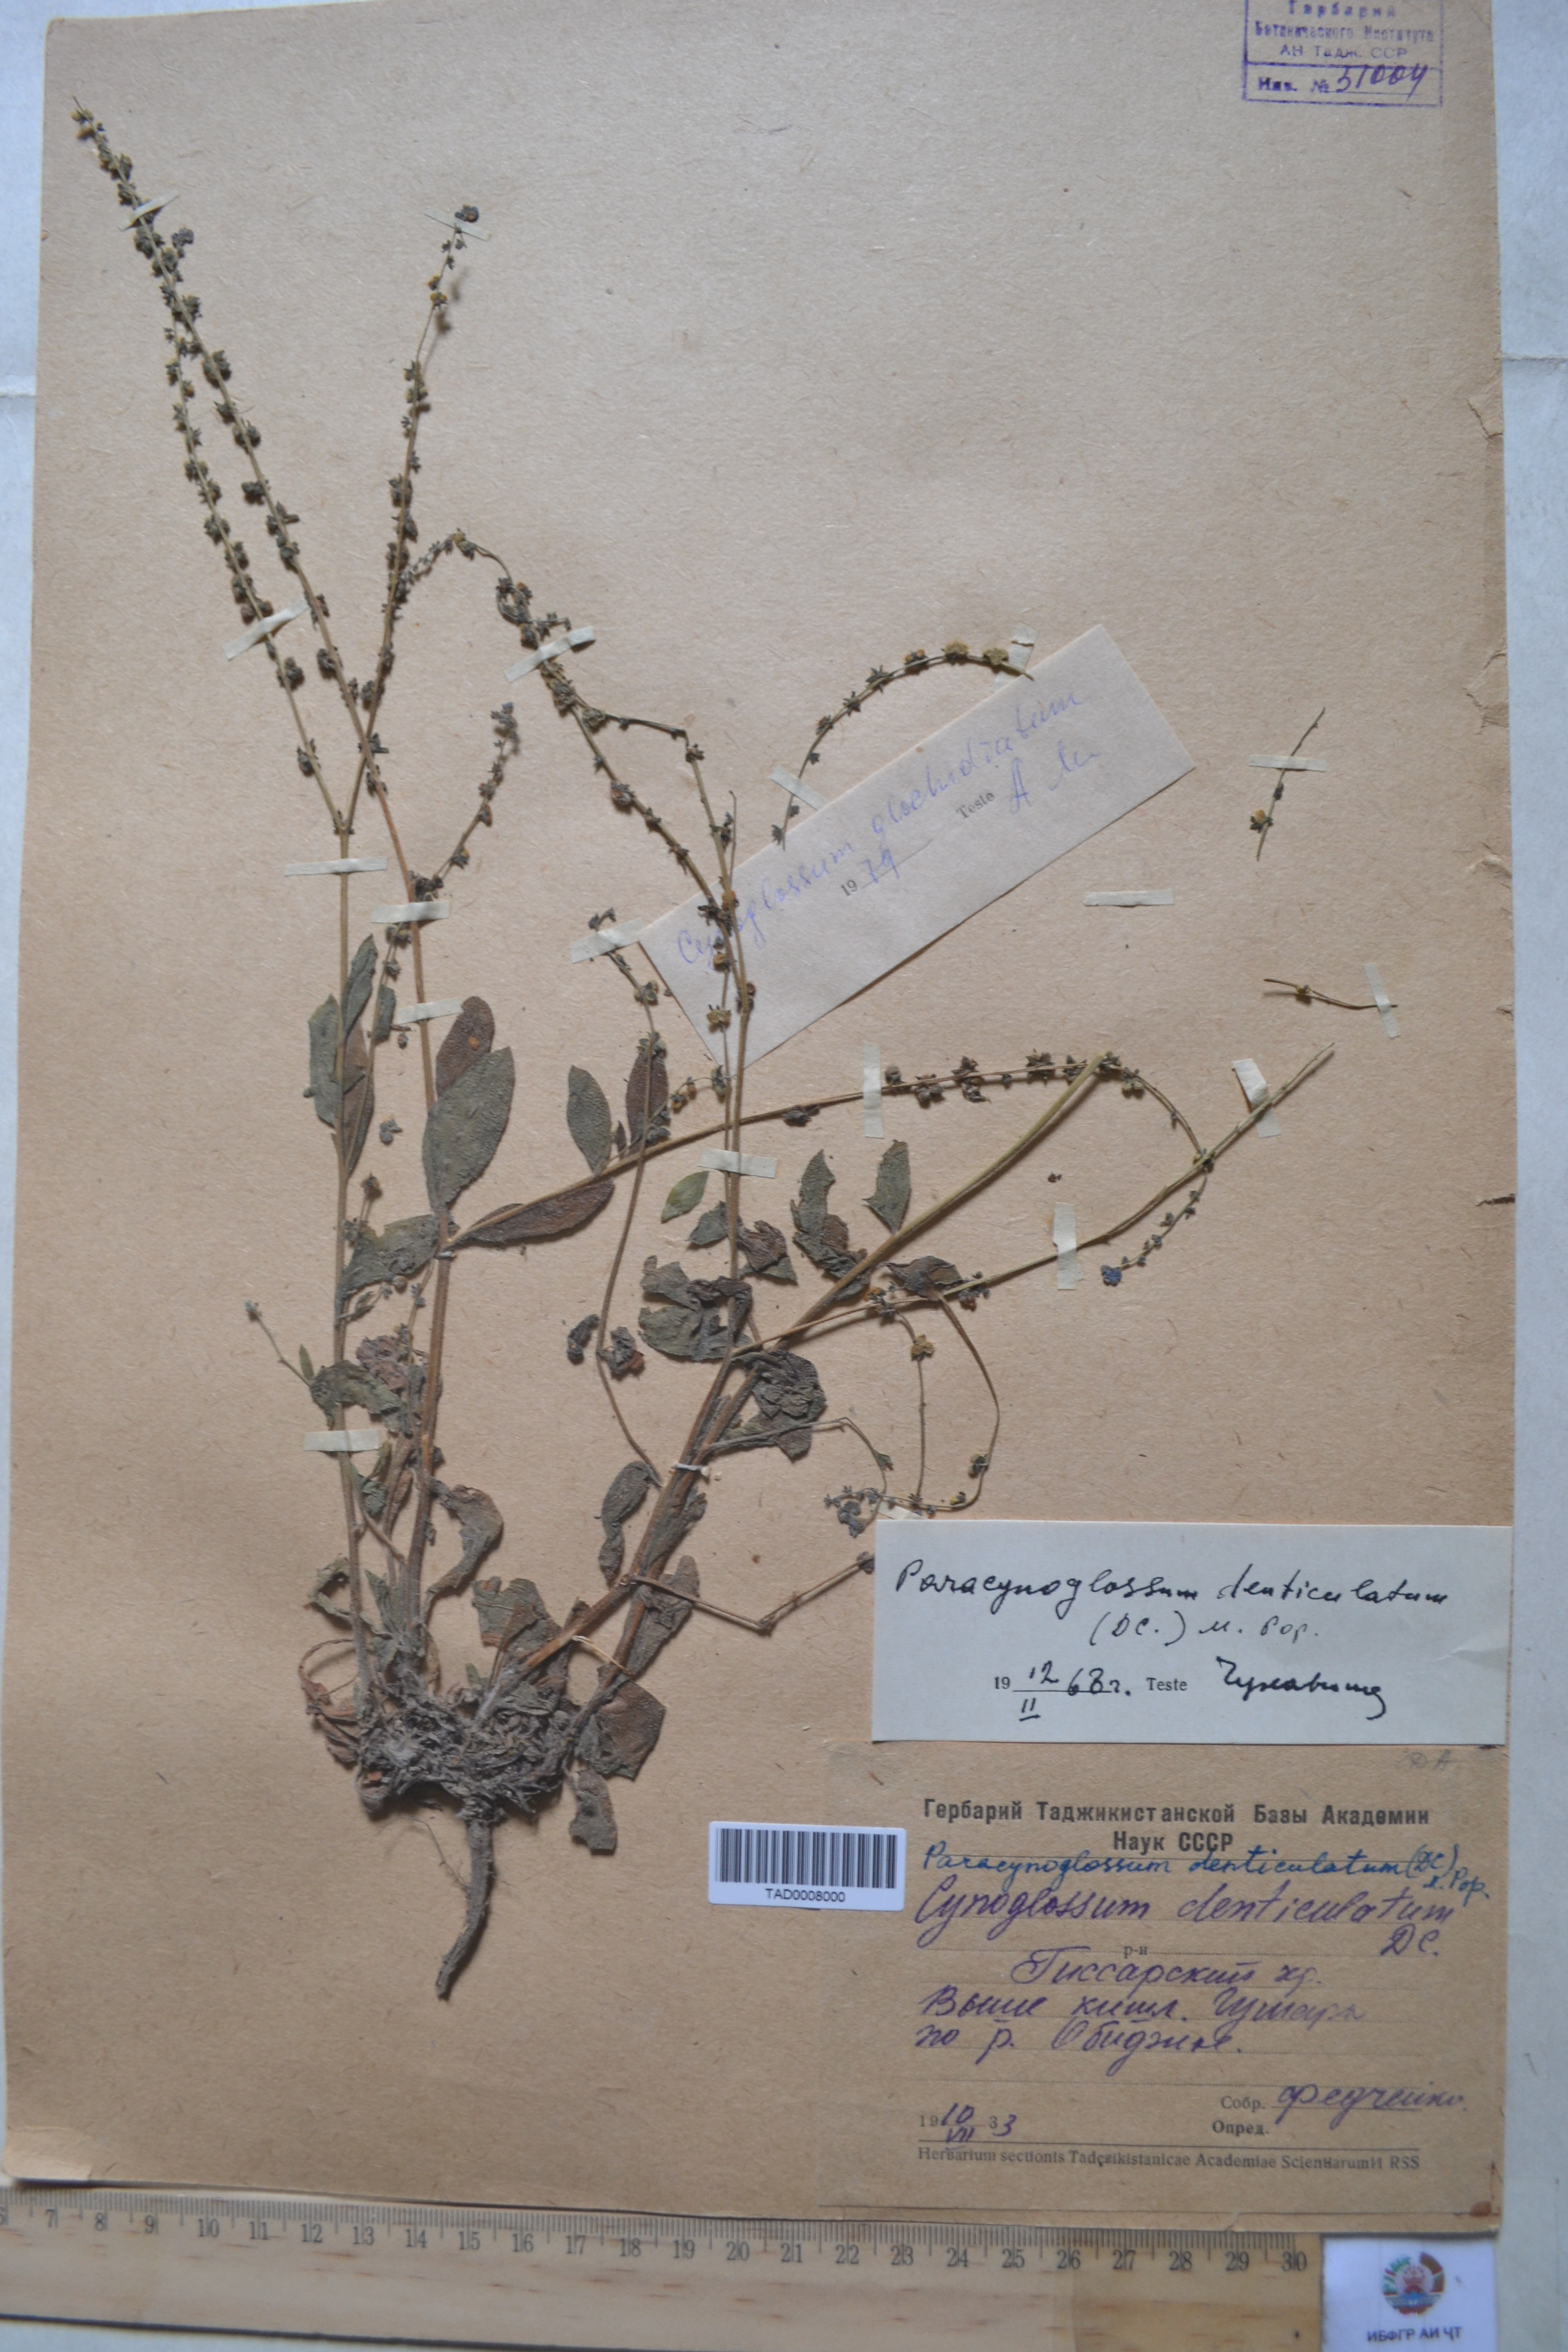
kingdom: Plantae
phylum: Tracheophyta
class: Magnoliopsida
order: Boraginales
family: Boraginaceae
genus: Paracynoglossum
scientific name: Paracynoglossum glochidiatum
